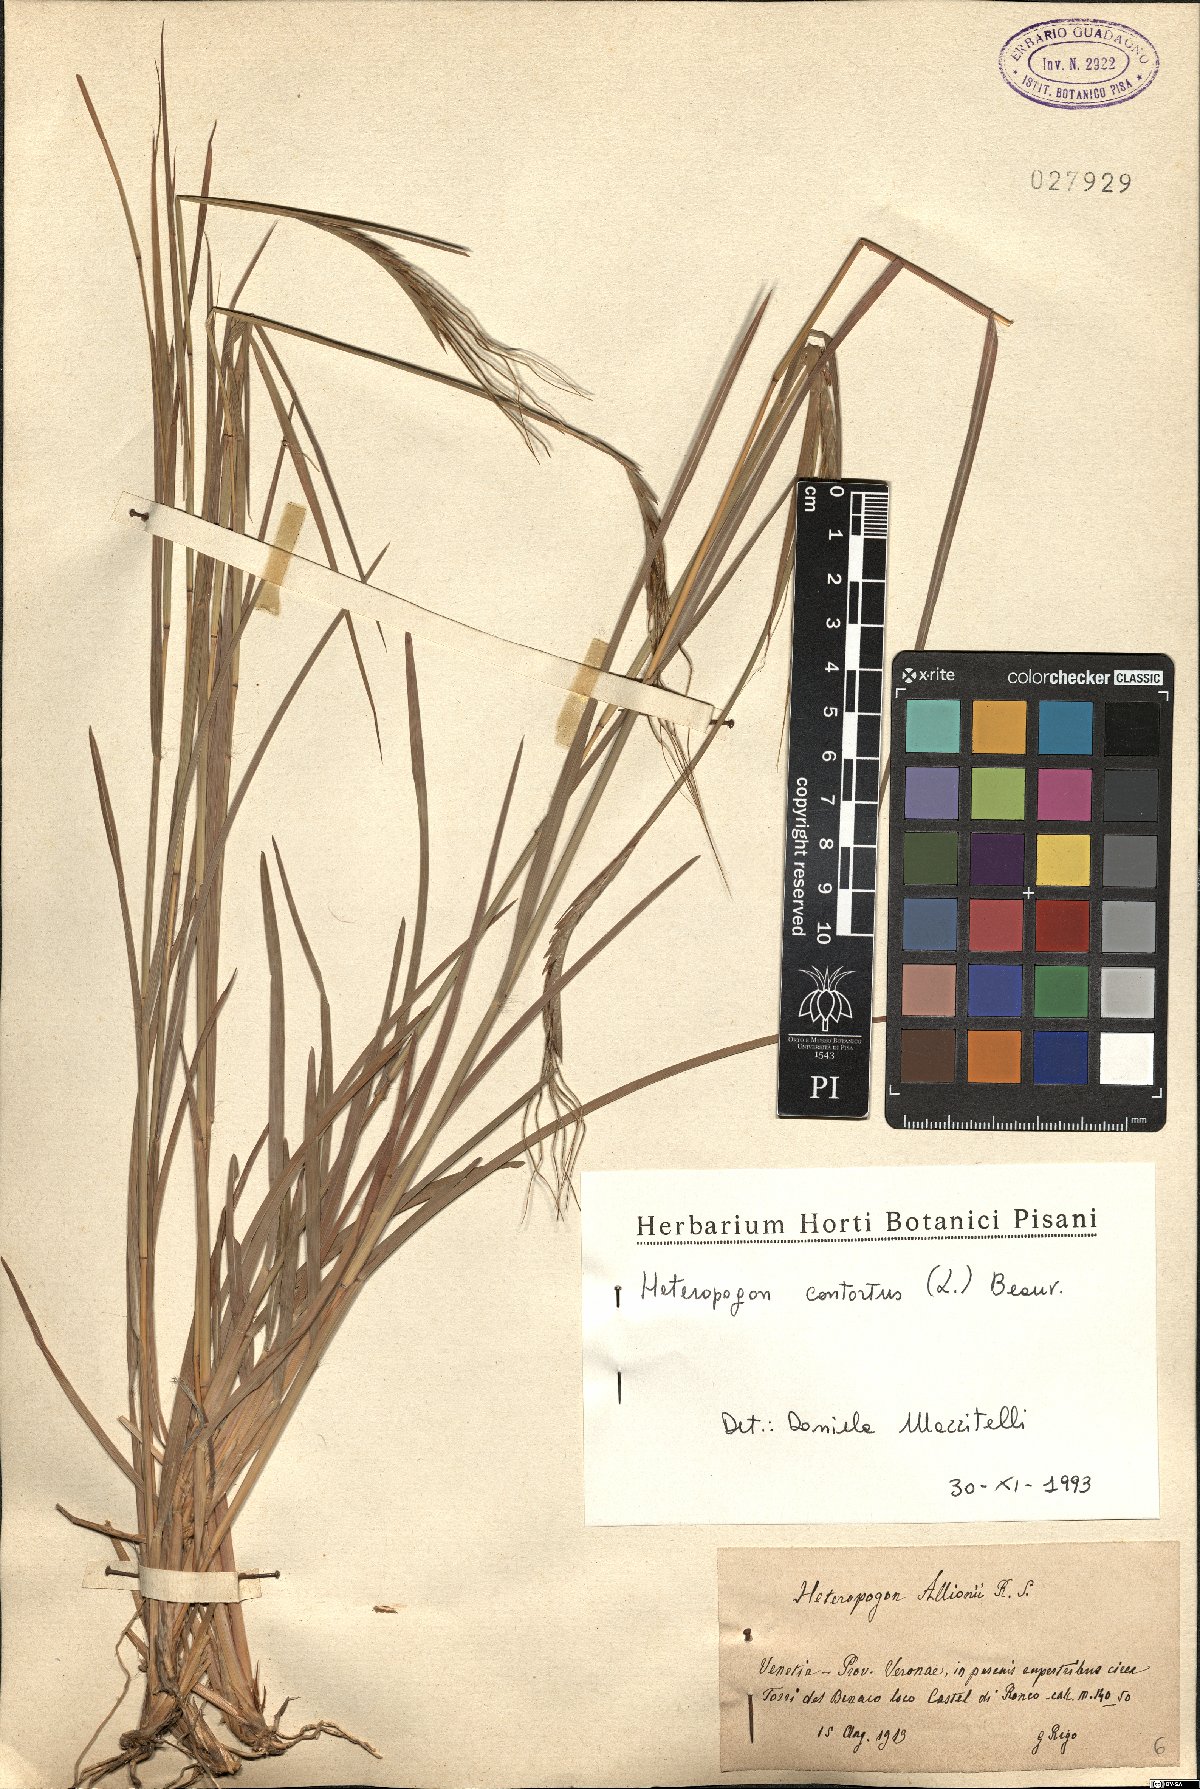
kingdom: Plantae
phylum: Tracheophyta
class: Liliopsida
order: Poales
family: Poaceae
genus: Heteropogon
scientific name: Heteropogon contortus
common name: Tanglehead
